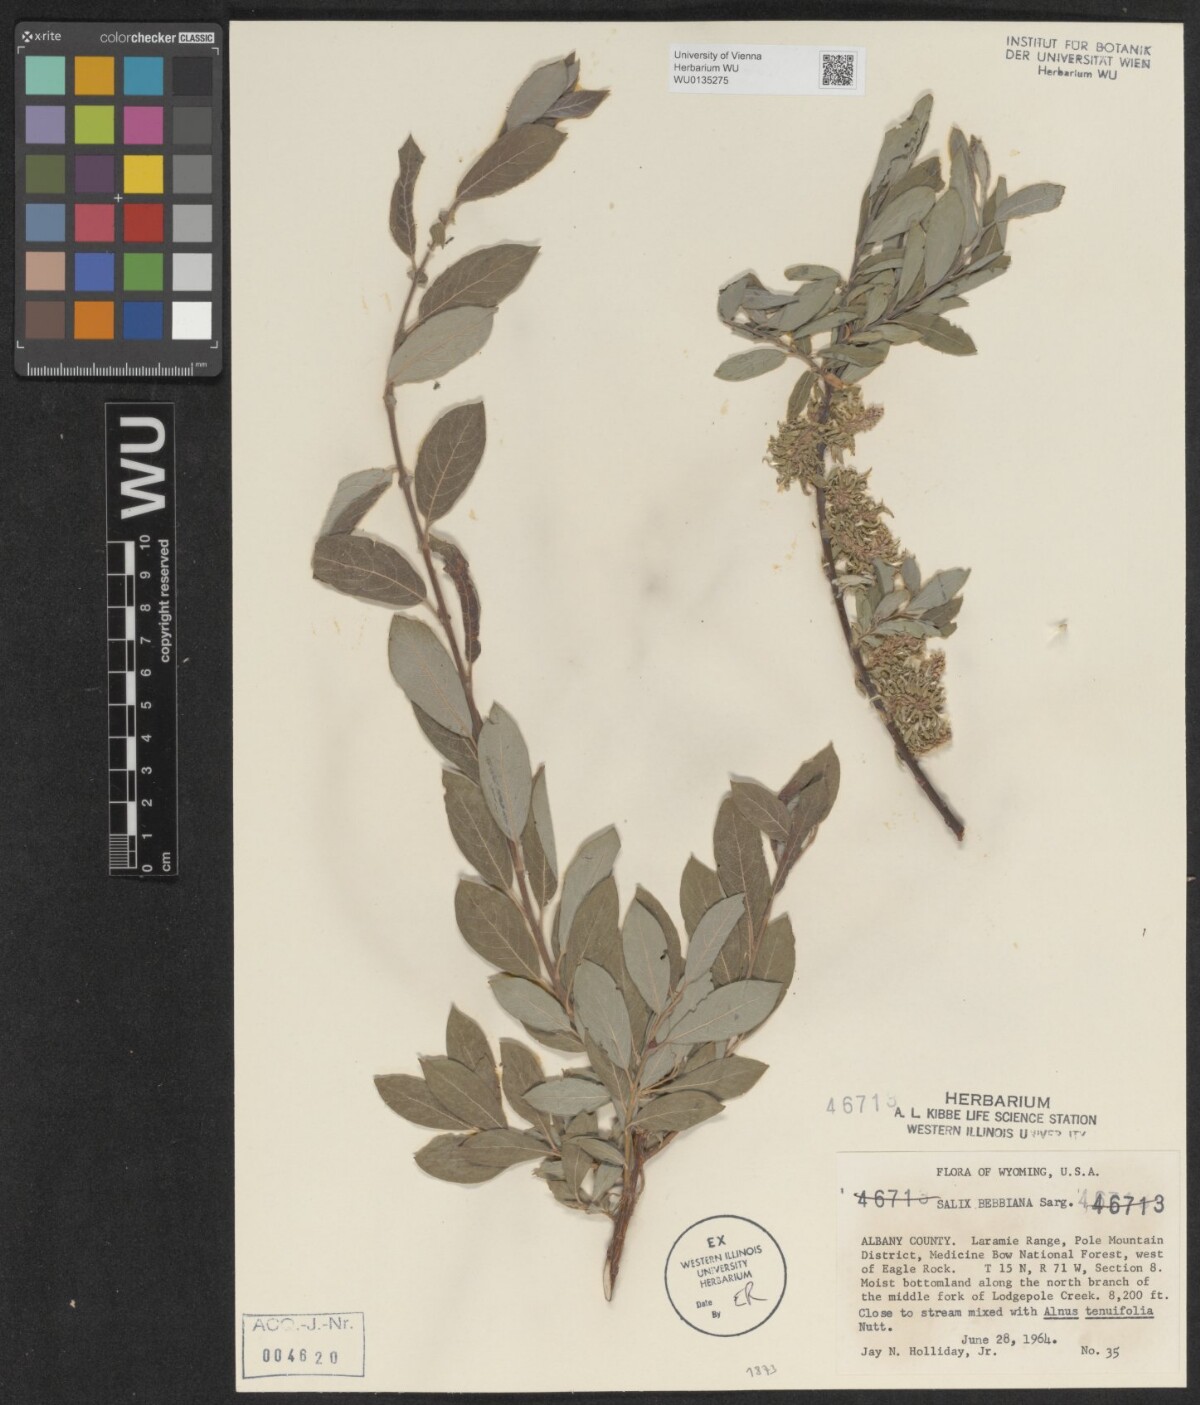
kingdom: Plantae
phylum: Tracheophyta
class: Magnoliopsida
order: Malpighiales
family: Salicaceae
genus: Salix
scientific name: Salix bebbiana
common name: Bebb's willow
